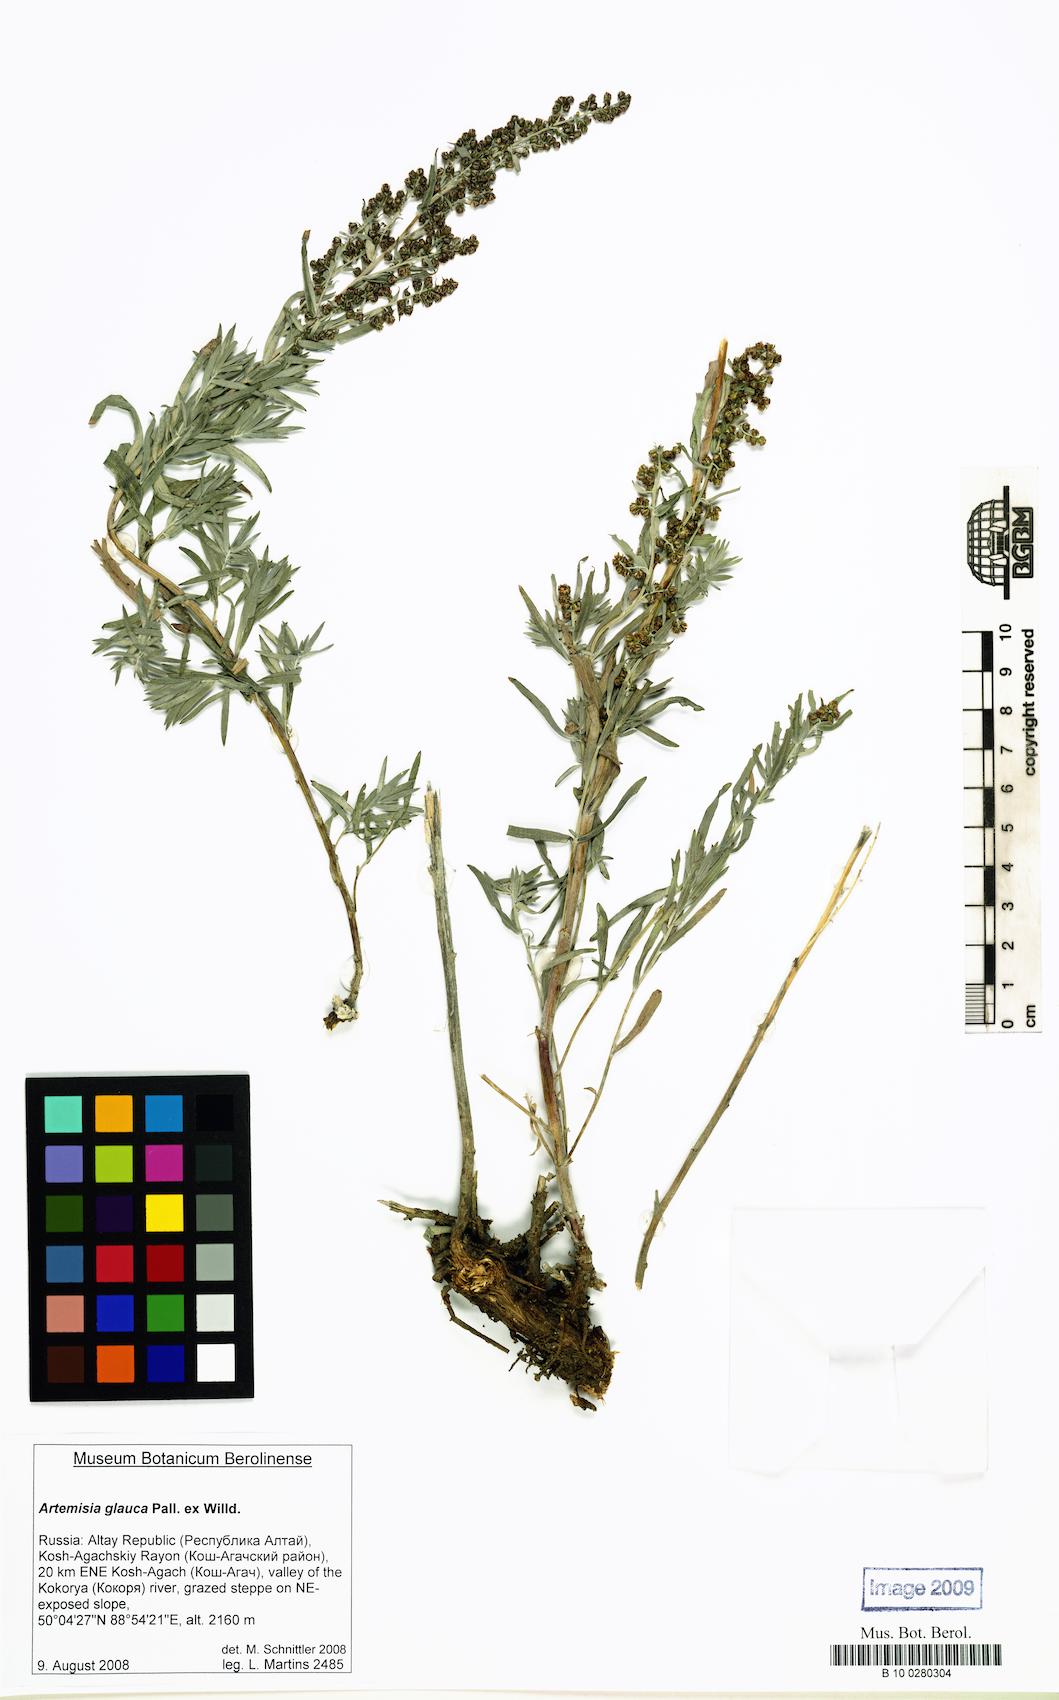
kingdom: Plantae
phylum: Tracheophyta
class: Magnoliopsida
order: Asterales
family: Asteraceae
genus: Artemisia
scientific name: Artemisia glauca
